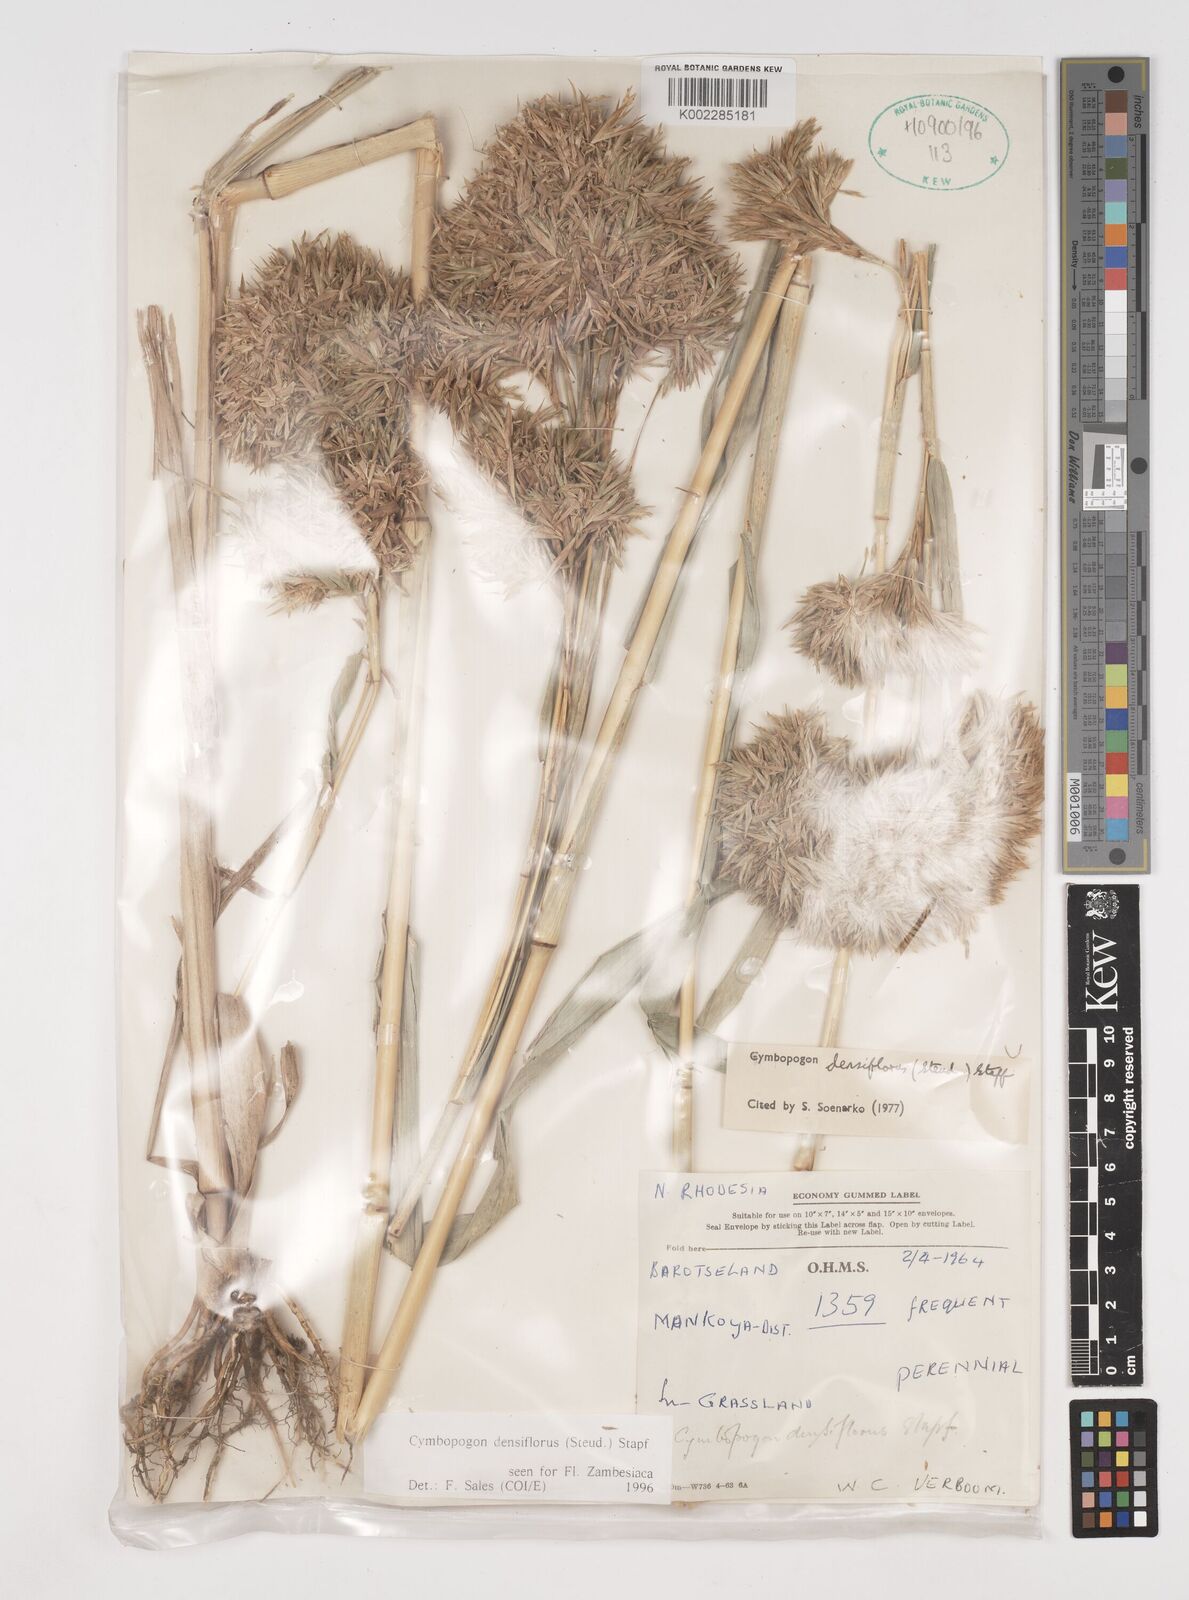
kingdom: Plantae
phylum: Tracheophyta
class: Liliopsida
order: Poales
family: Poaceae
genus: Cymbopogon
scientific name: Cymbopogon densiflorus
